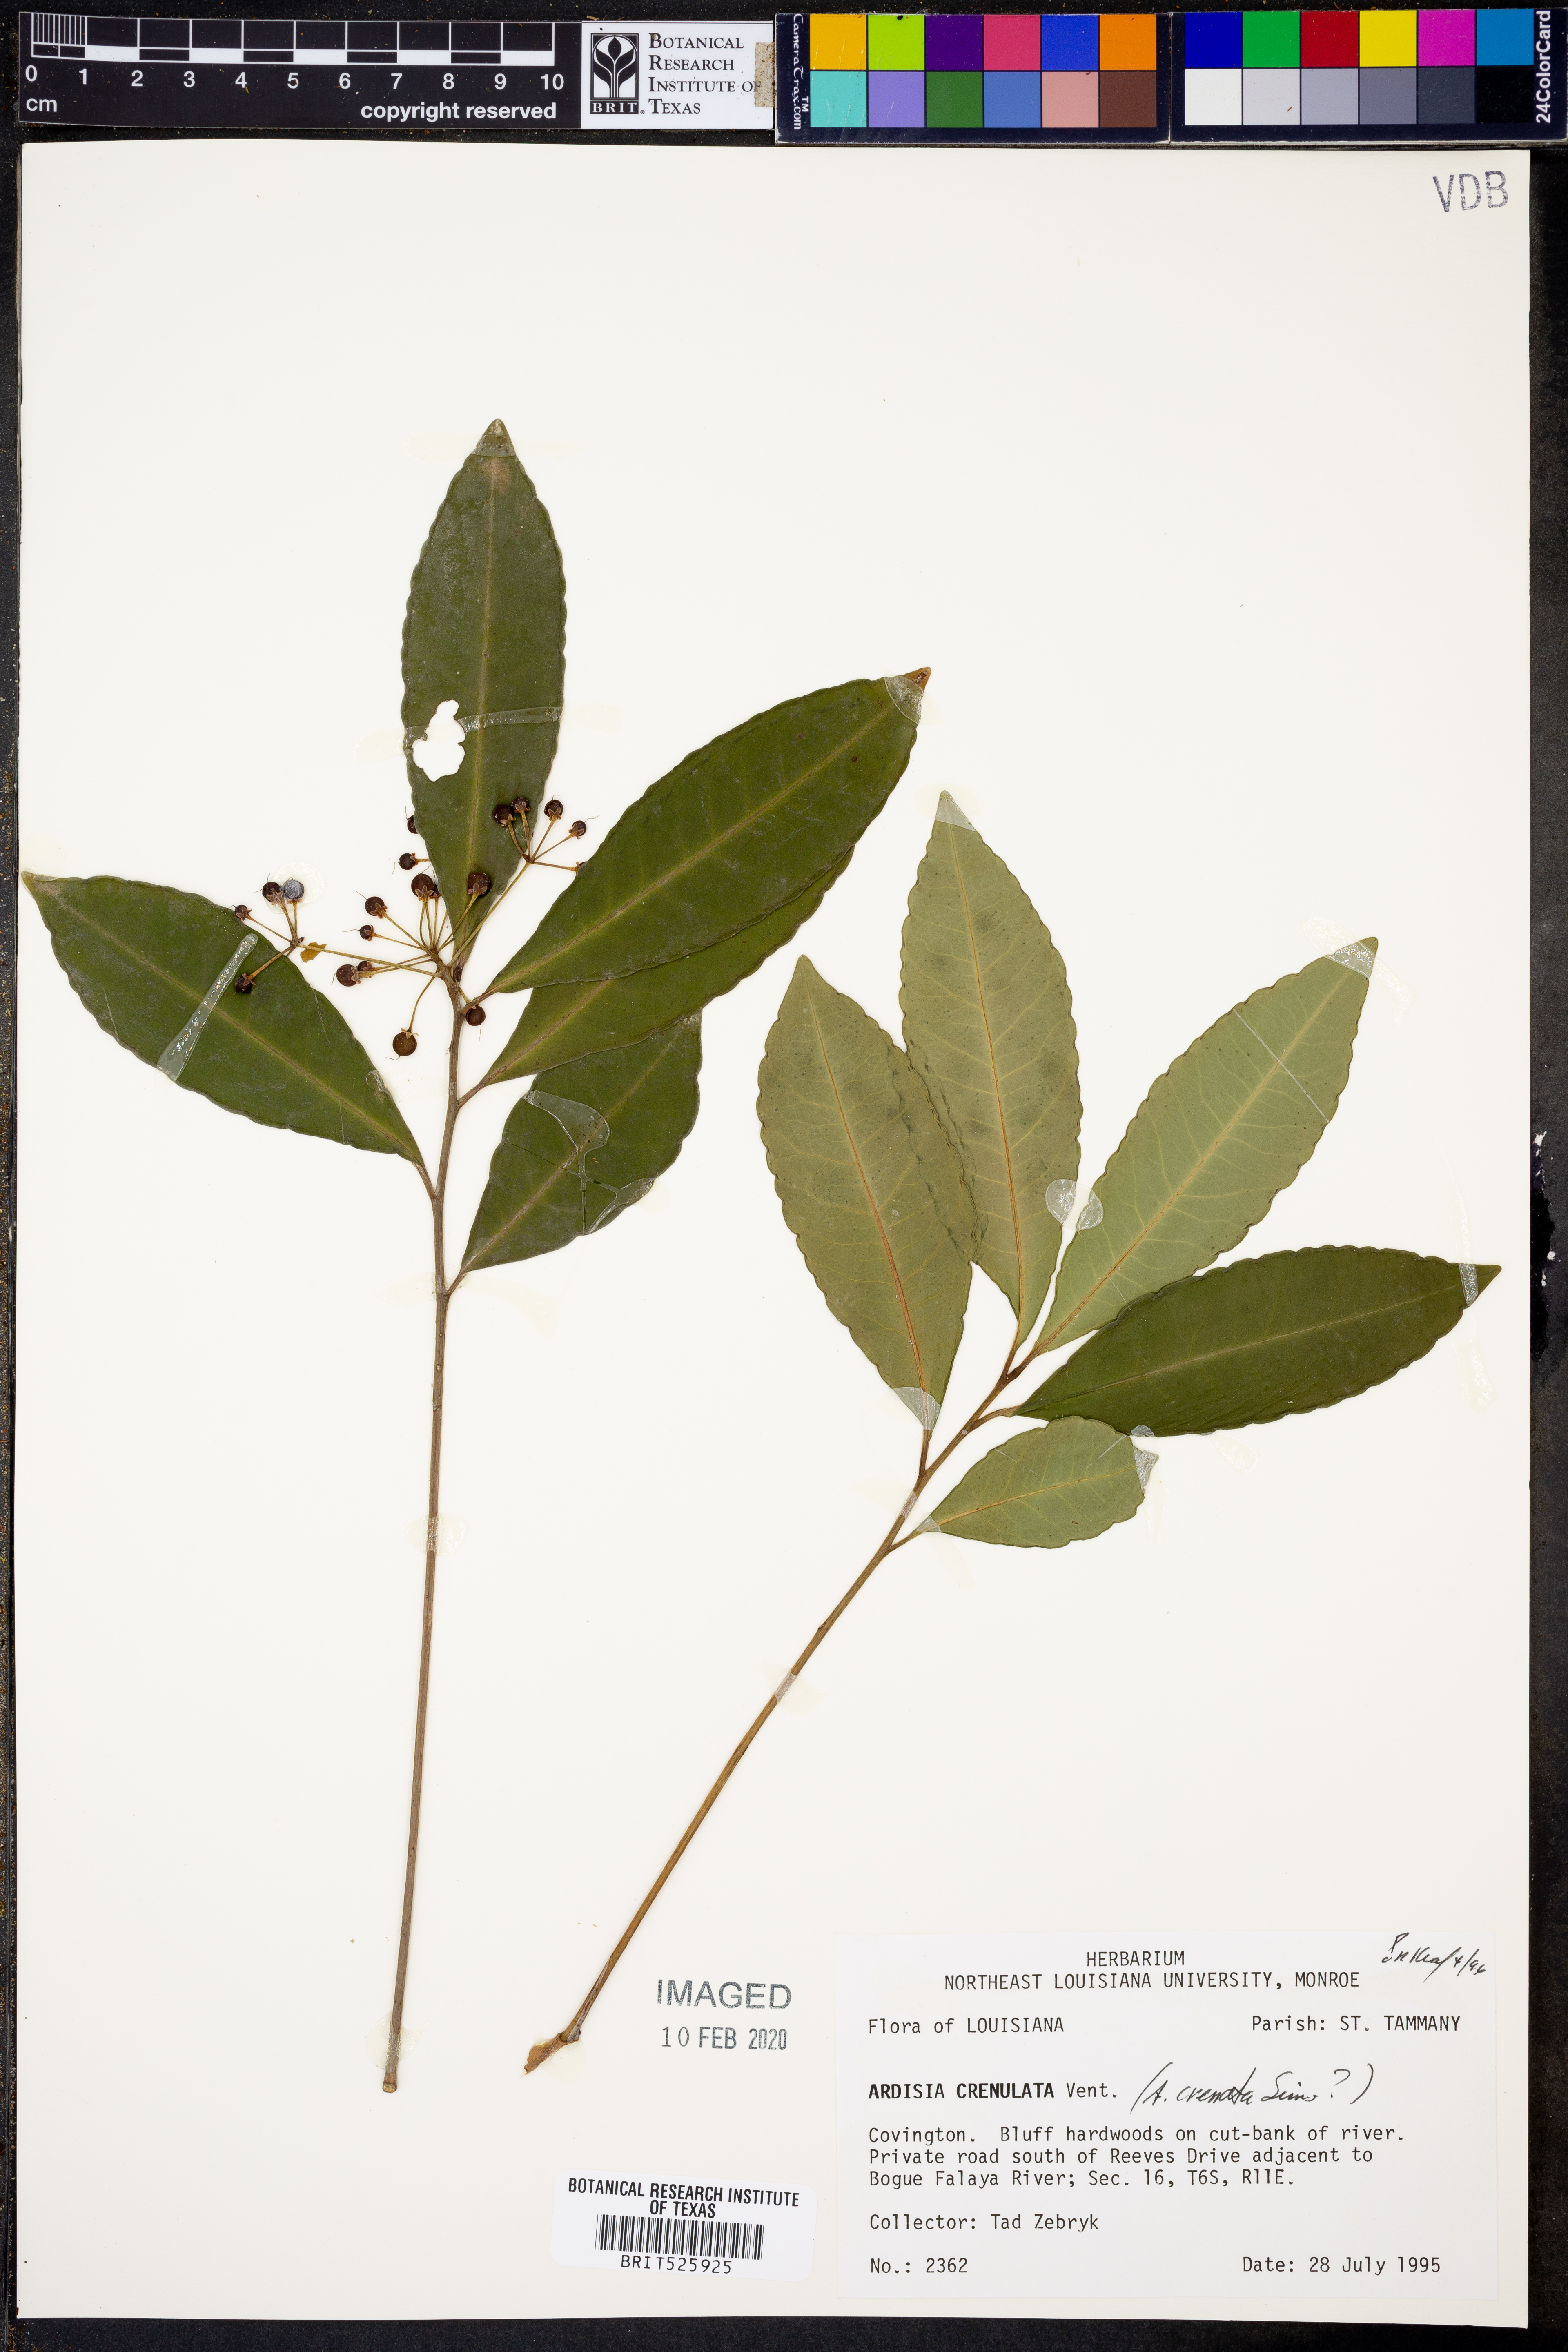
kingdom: Plantae
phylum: Tracheophyta
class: Magnoliopsida
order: Ericales
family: Primulaceae
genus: Ardisia
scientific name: Ardisia crenata
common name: Hen's eyes
